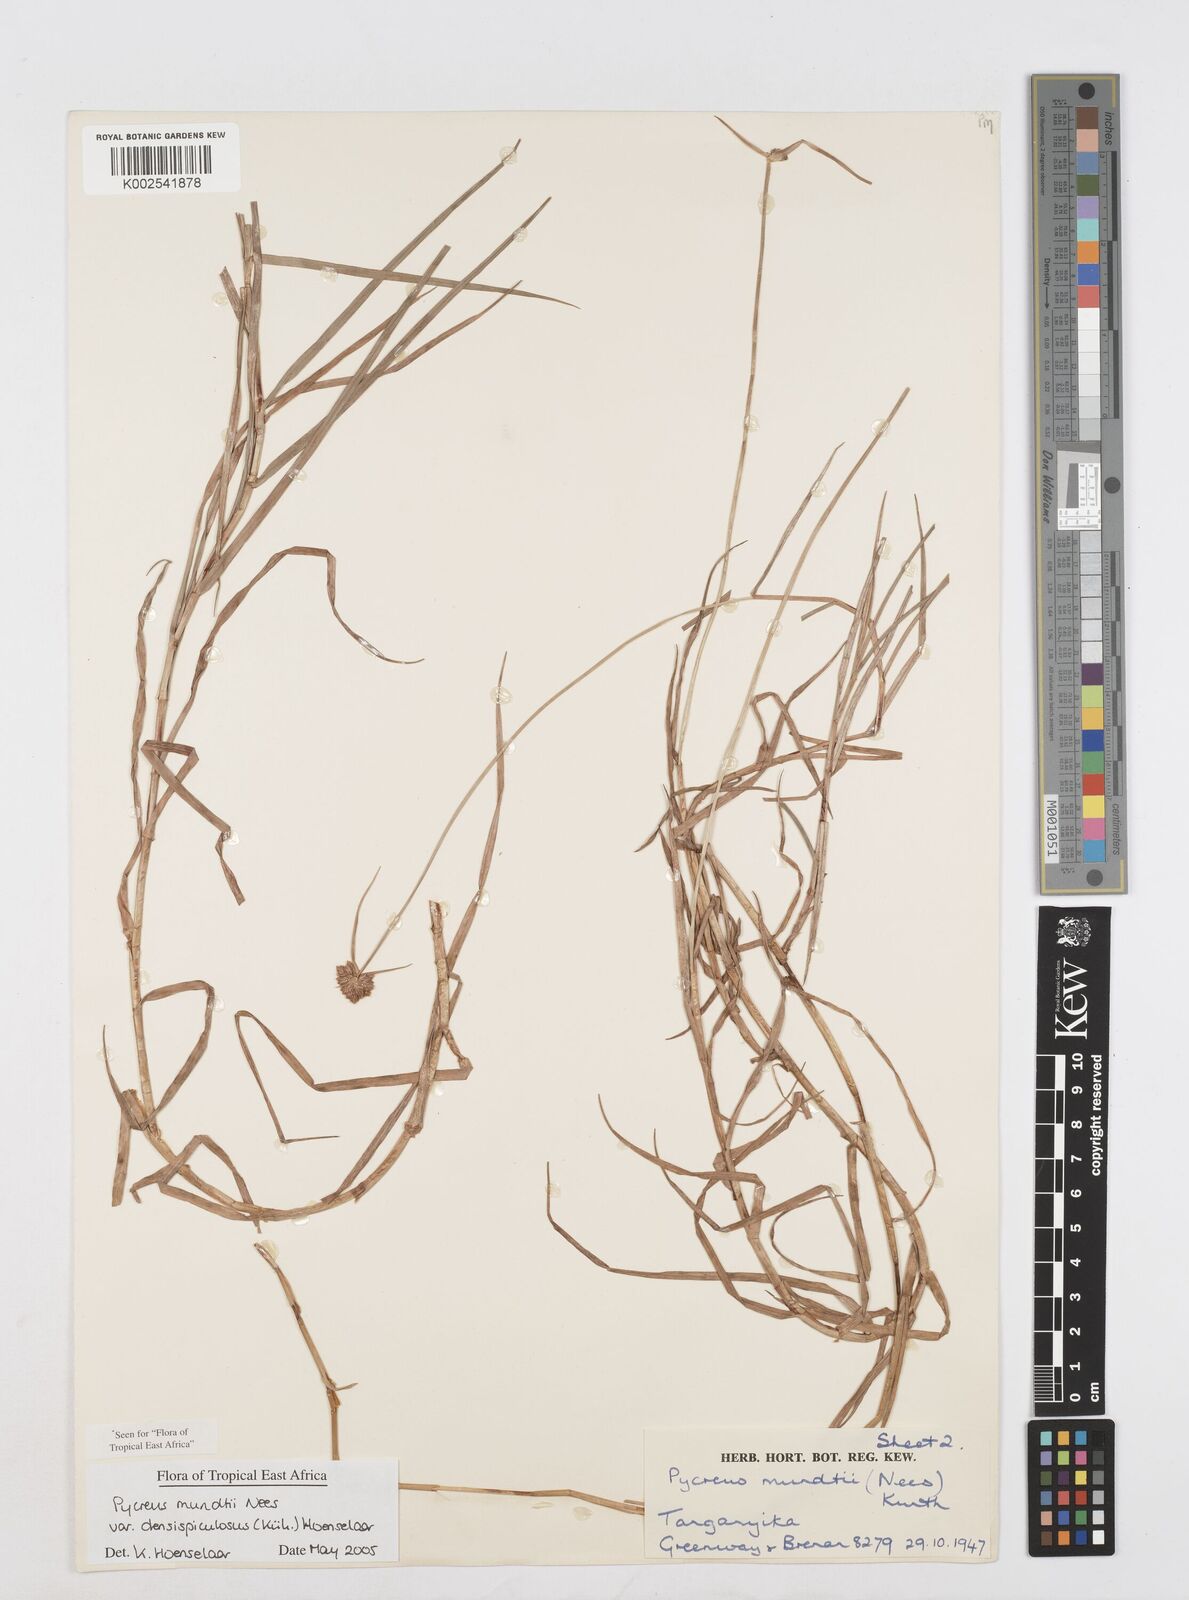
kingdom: Plantae
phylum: Tracheophyta
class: Liliopsida
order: Poales
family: Cyperaceae
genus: Cyperus
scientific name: Cyperus mundii
